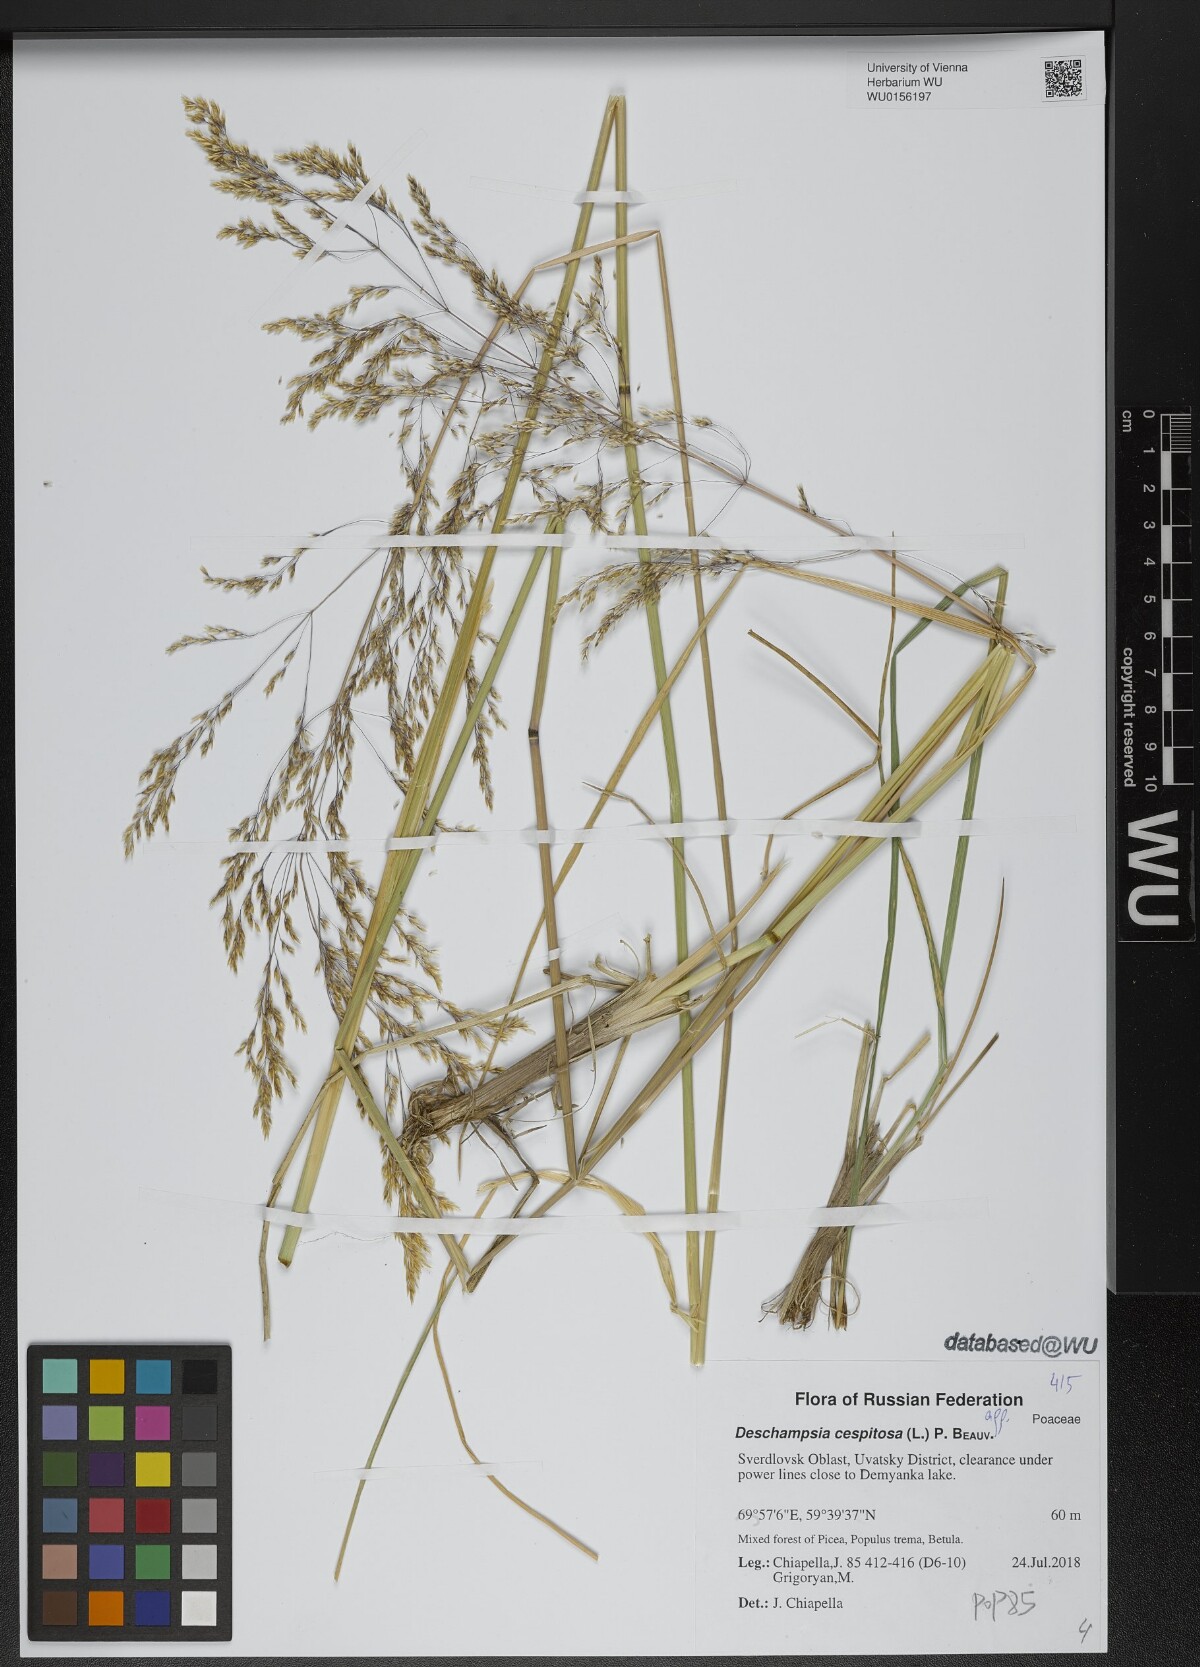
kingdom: Plantae
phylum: Tracheophyta
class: Liliopsida
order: Poales
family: Poaceae
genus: Deschampsia
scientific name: Deschampsia cespitosa
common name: Tufted hair-grass
